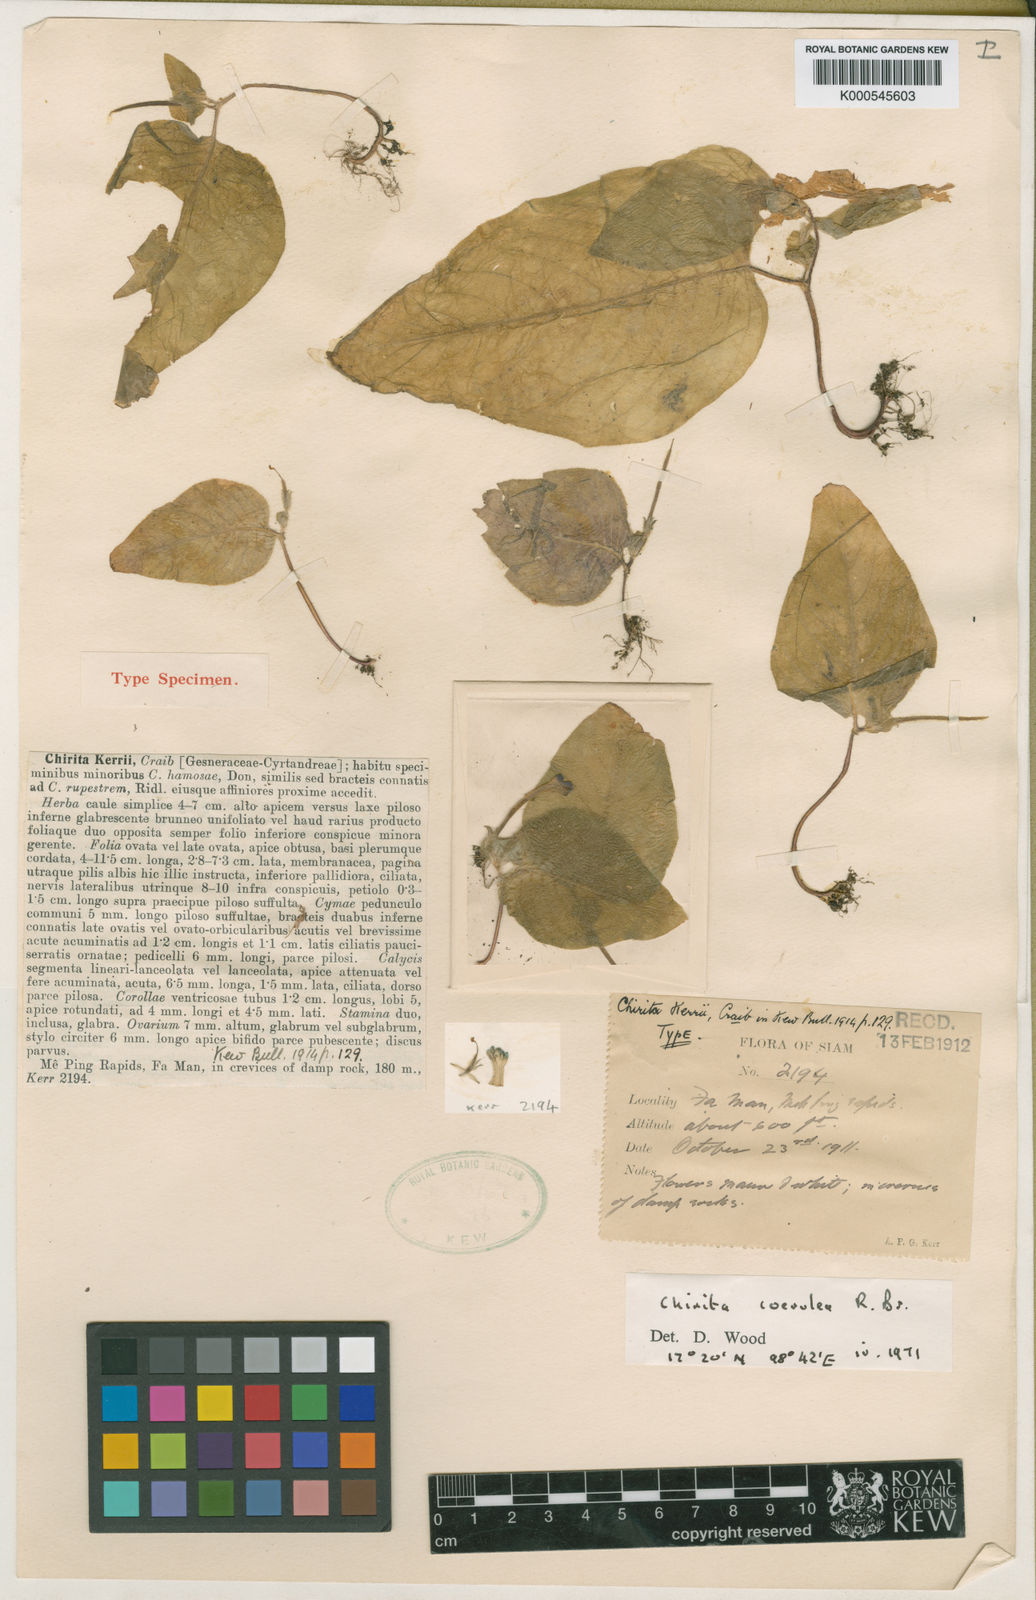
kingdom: Plantae
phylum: Tracheophyta
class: Magnoliopsida
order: Lamiales
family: Gesneriaceae
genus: Microchirita
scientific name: Microchirita
